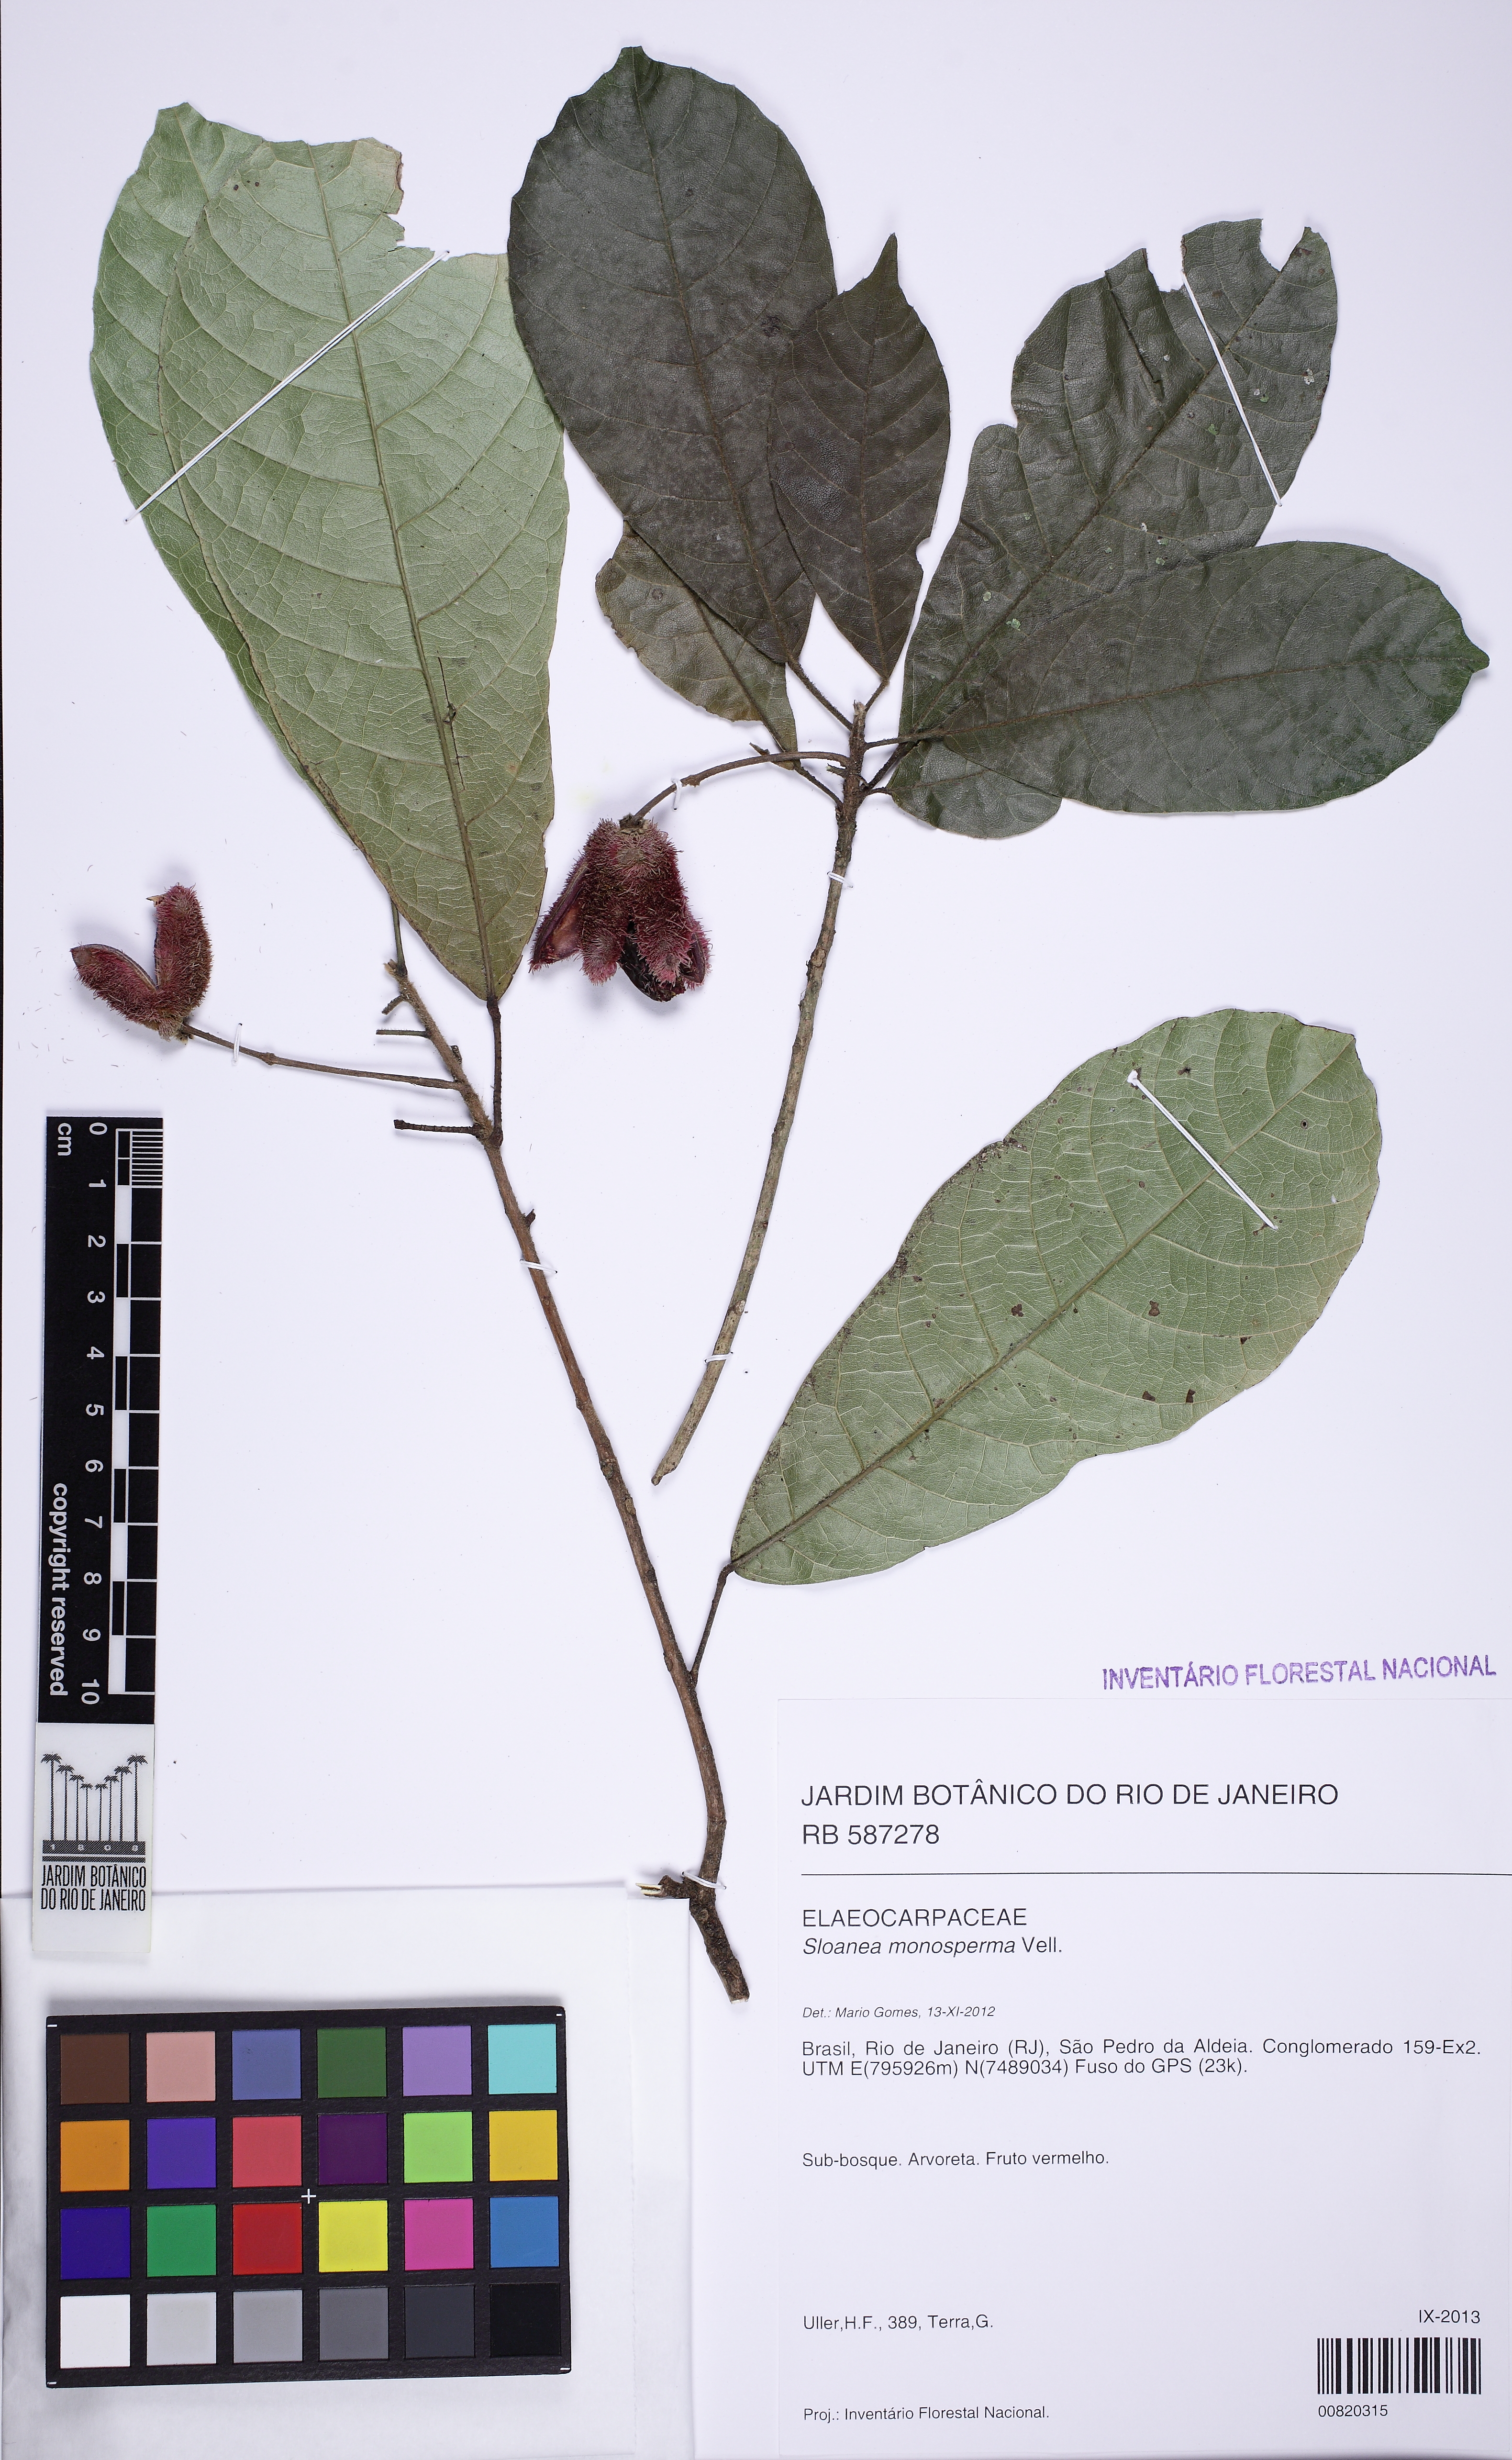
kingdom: Plantae
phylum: Tracheophyta
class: Magnoliopsida
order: Oxalidales
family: Elaeocarpaceae
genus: Sloanea
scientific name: Sloanea garckeana
